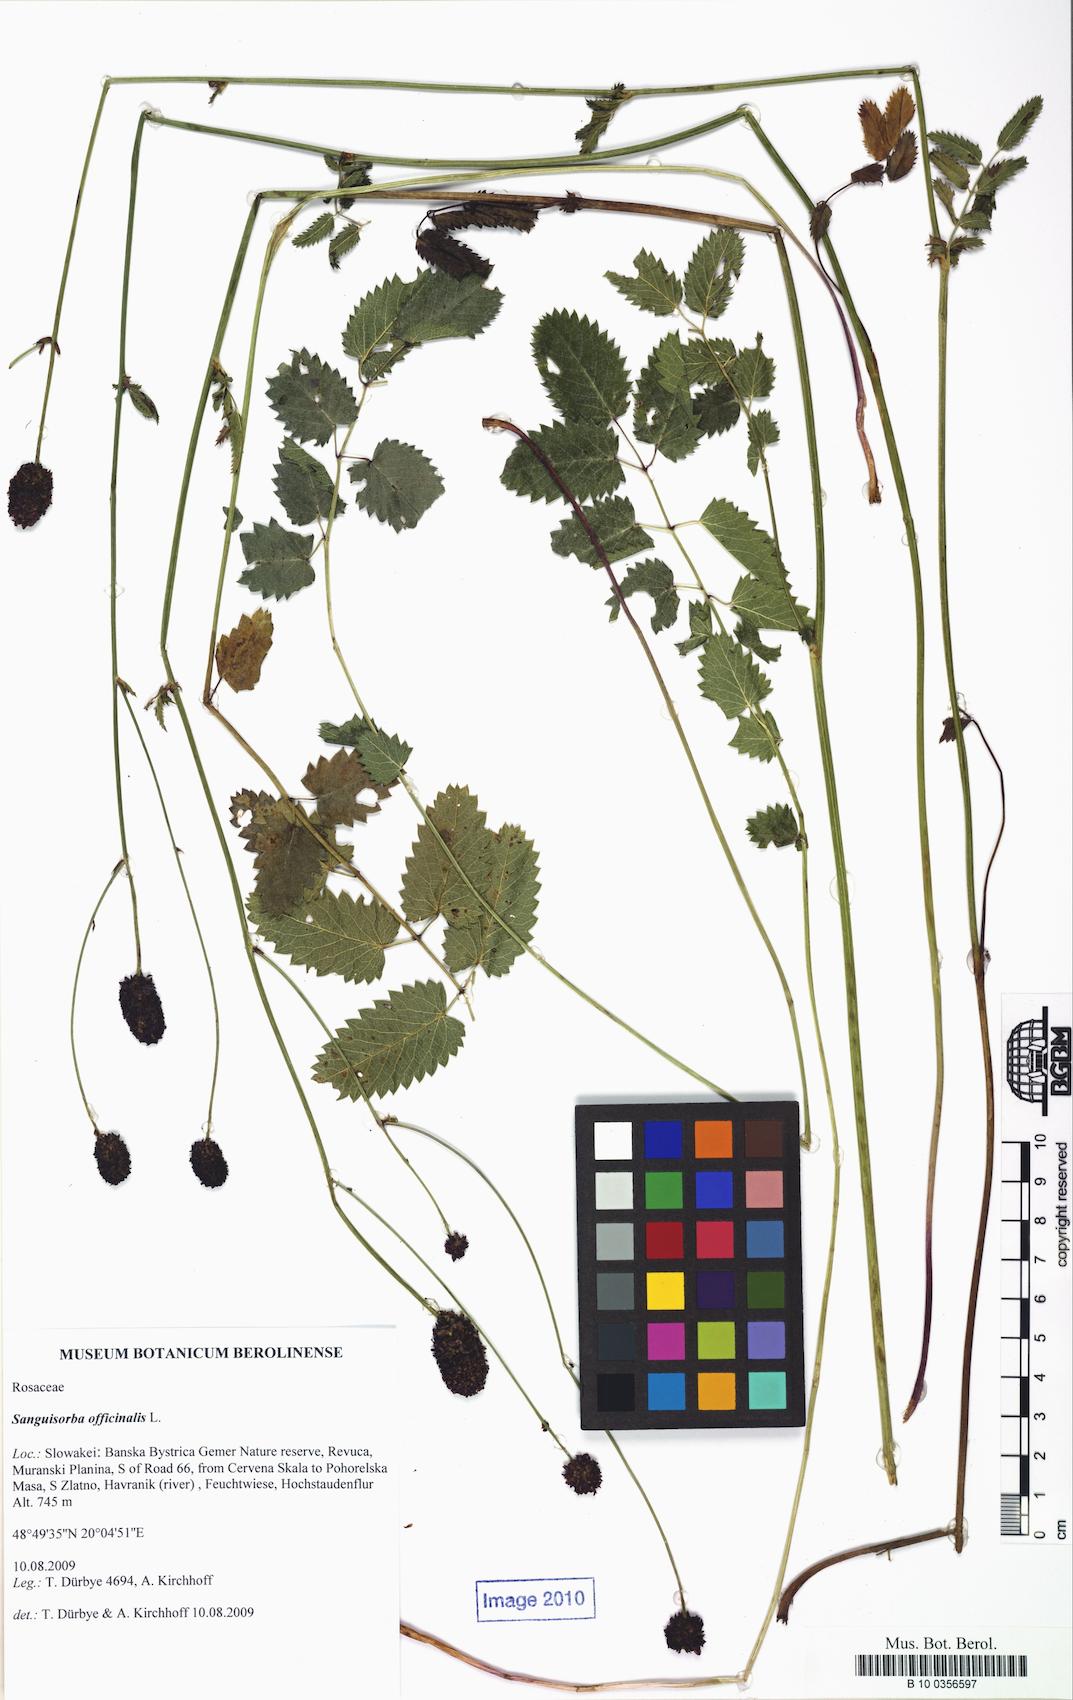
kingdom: Plantae
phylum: Tracheophyta
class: Magnoliopsida
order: Rosales
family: Rosaceae
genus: Sanguisorba
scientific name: Sanguisorba officinalis
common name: Great burnet
